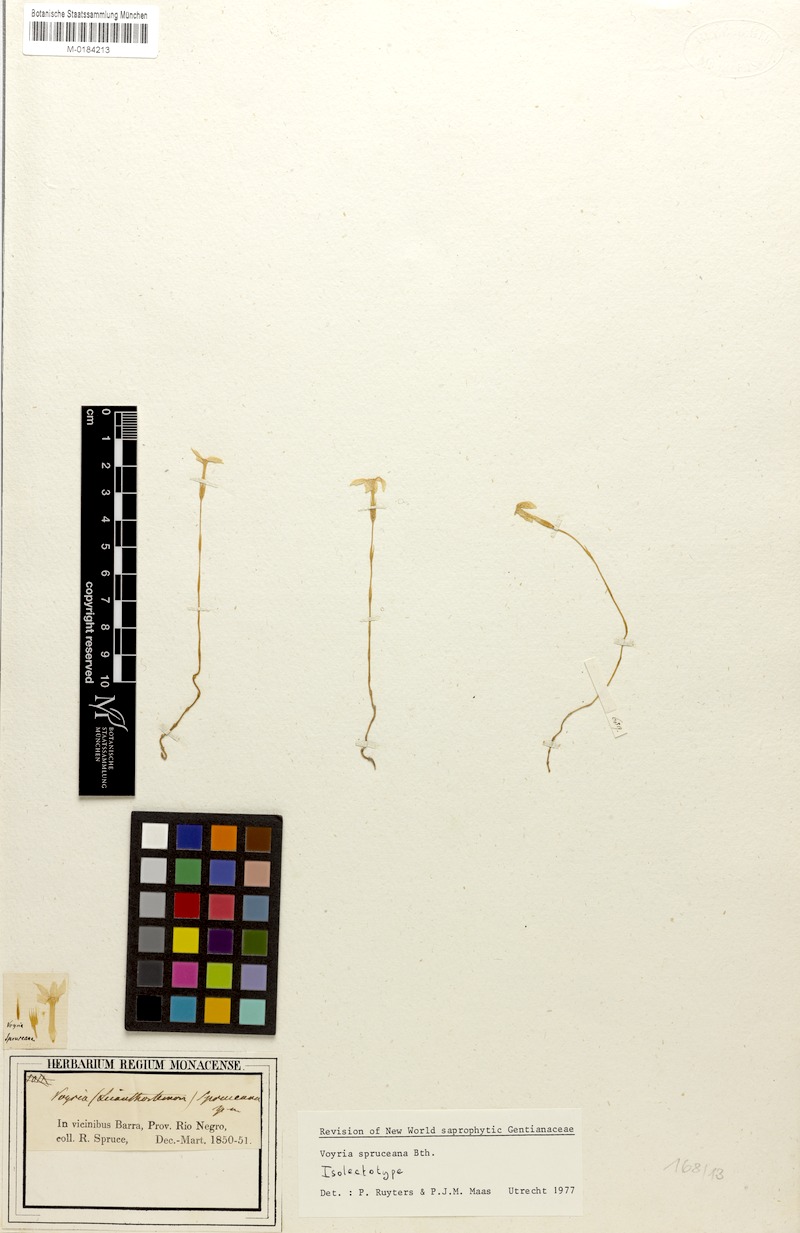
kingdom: Plantae
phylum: Tracheophyta
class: Magnoliopsida
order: Gentianales
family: Gentianaceae
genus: Voyria
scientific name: Voyria spruceana
